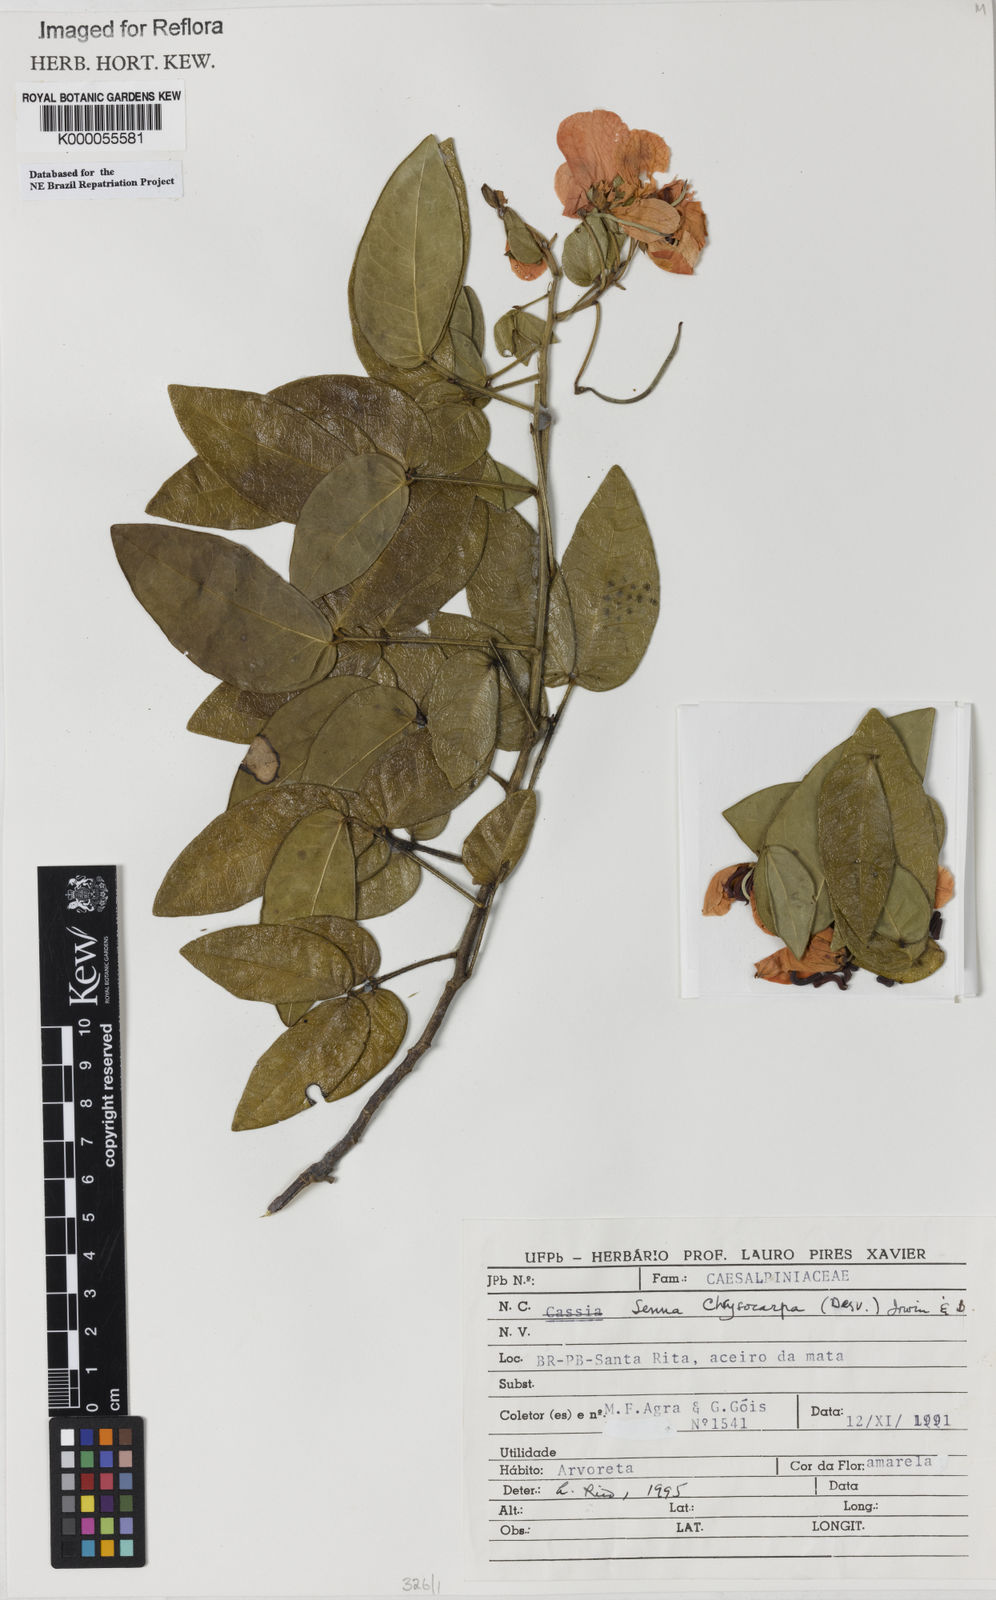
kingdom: Plantae
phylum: Tracheophyta
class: Magnoliopsida
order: Fabales
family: Fabaceae
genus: Senna
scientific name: Senna pinheiroi
